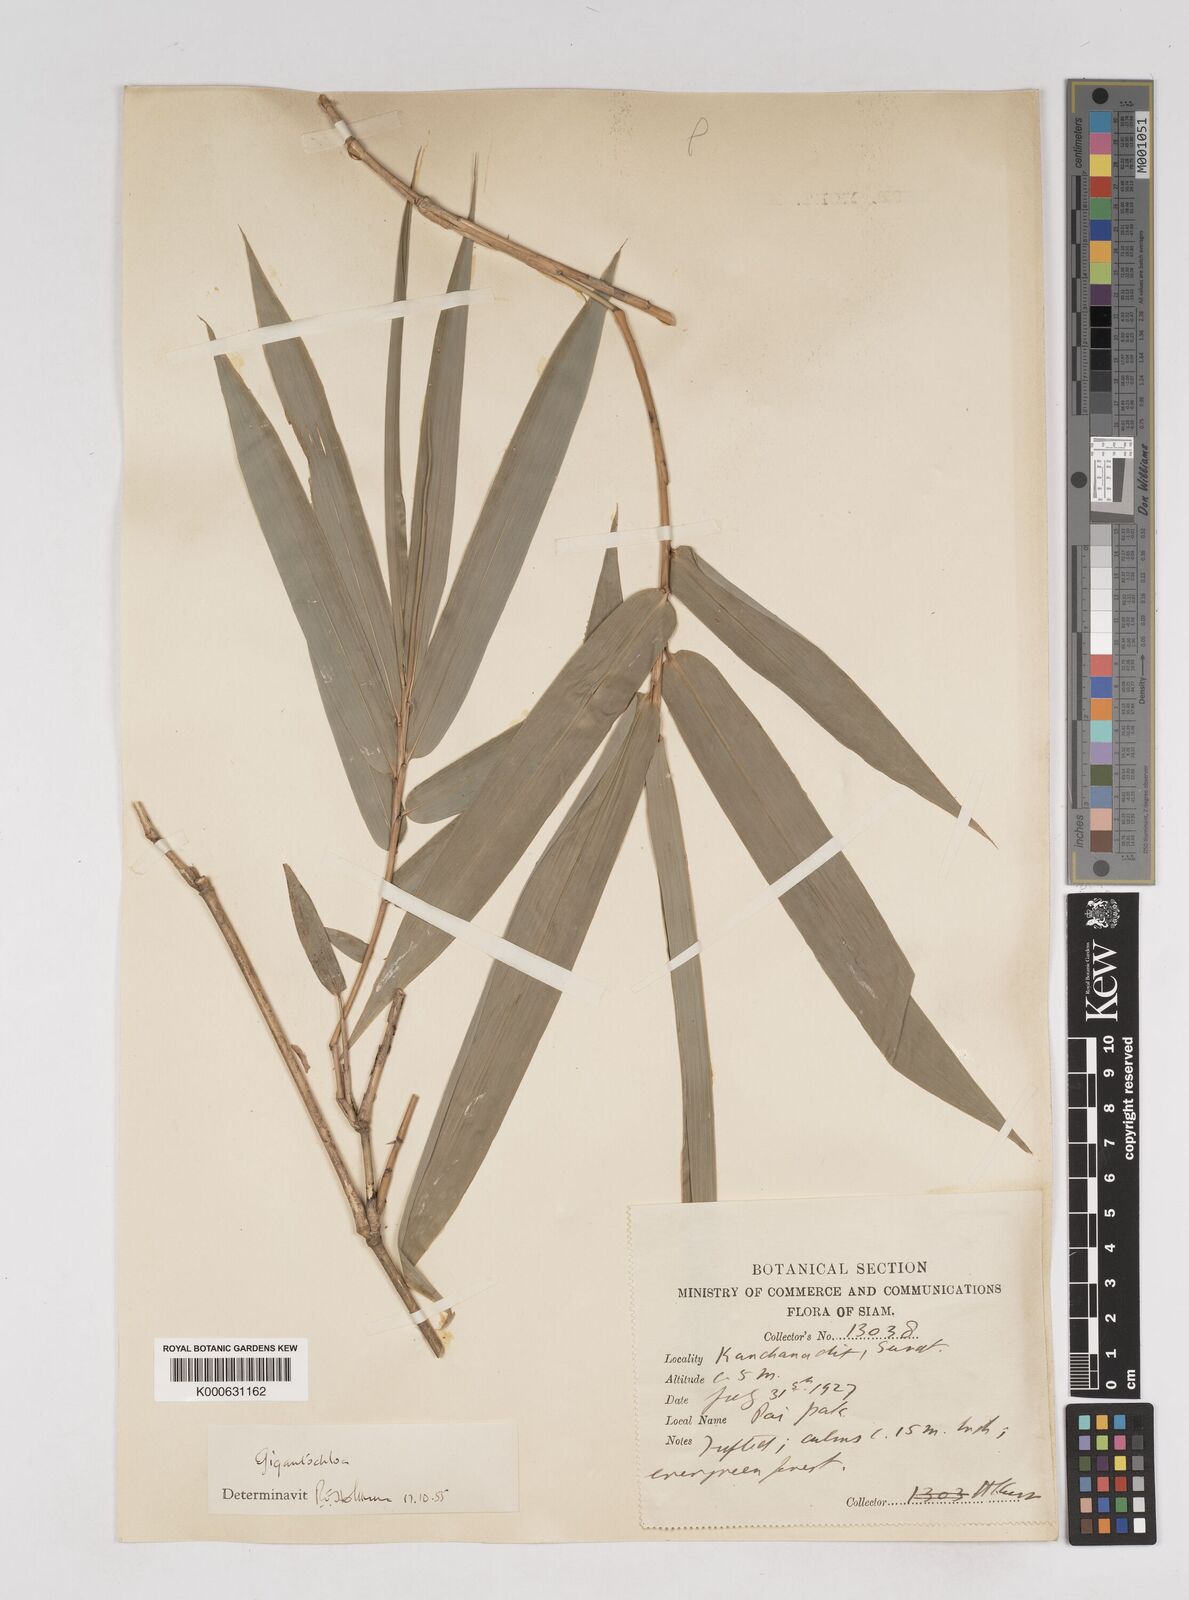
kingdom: Plantae
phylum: Tracheophyta
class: Liliopsida
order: Poales
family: Poaceae
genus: Gigantochloa
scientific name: Gigantochloa
